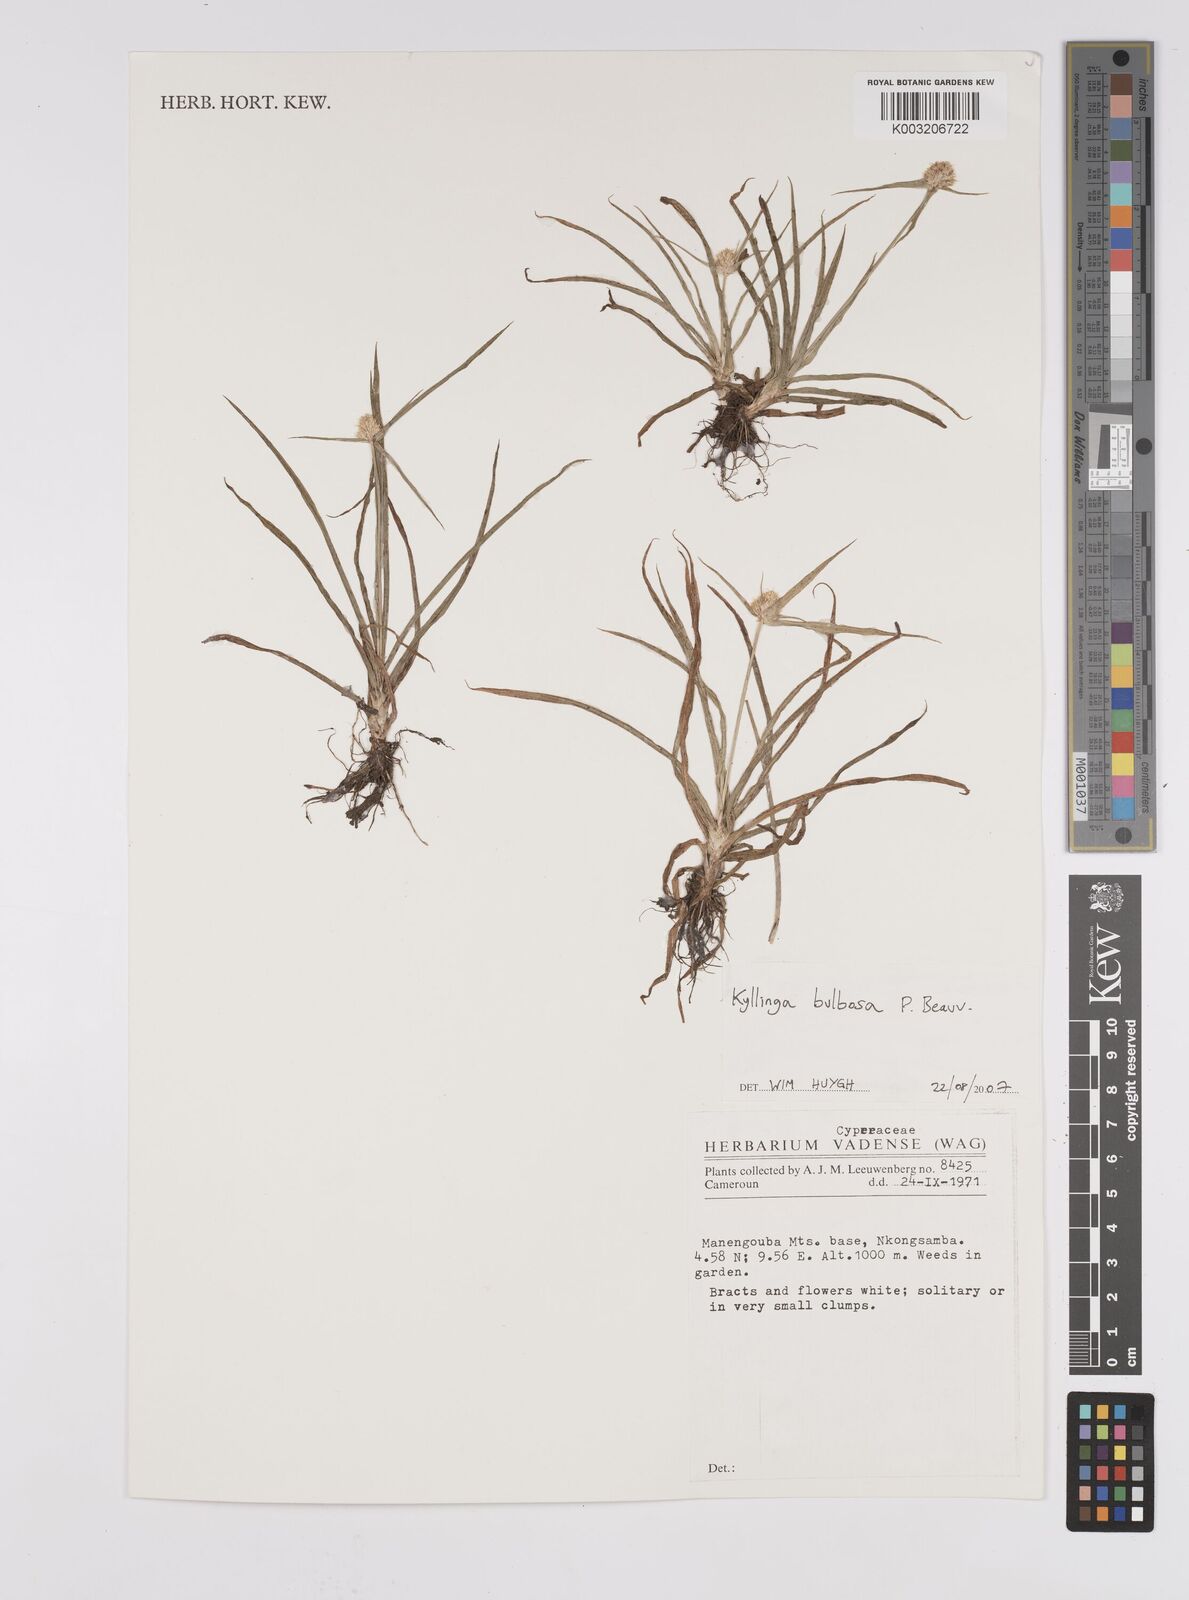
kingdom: Plantae
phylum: Tracheophyta
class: Liliopsida
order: Poales
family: Cyperaceae
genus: Cyperus
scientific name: Cyperus
